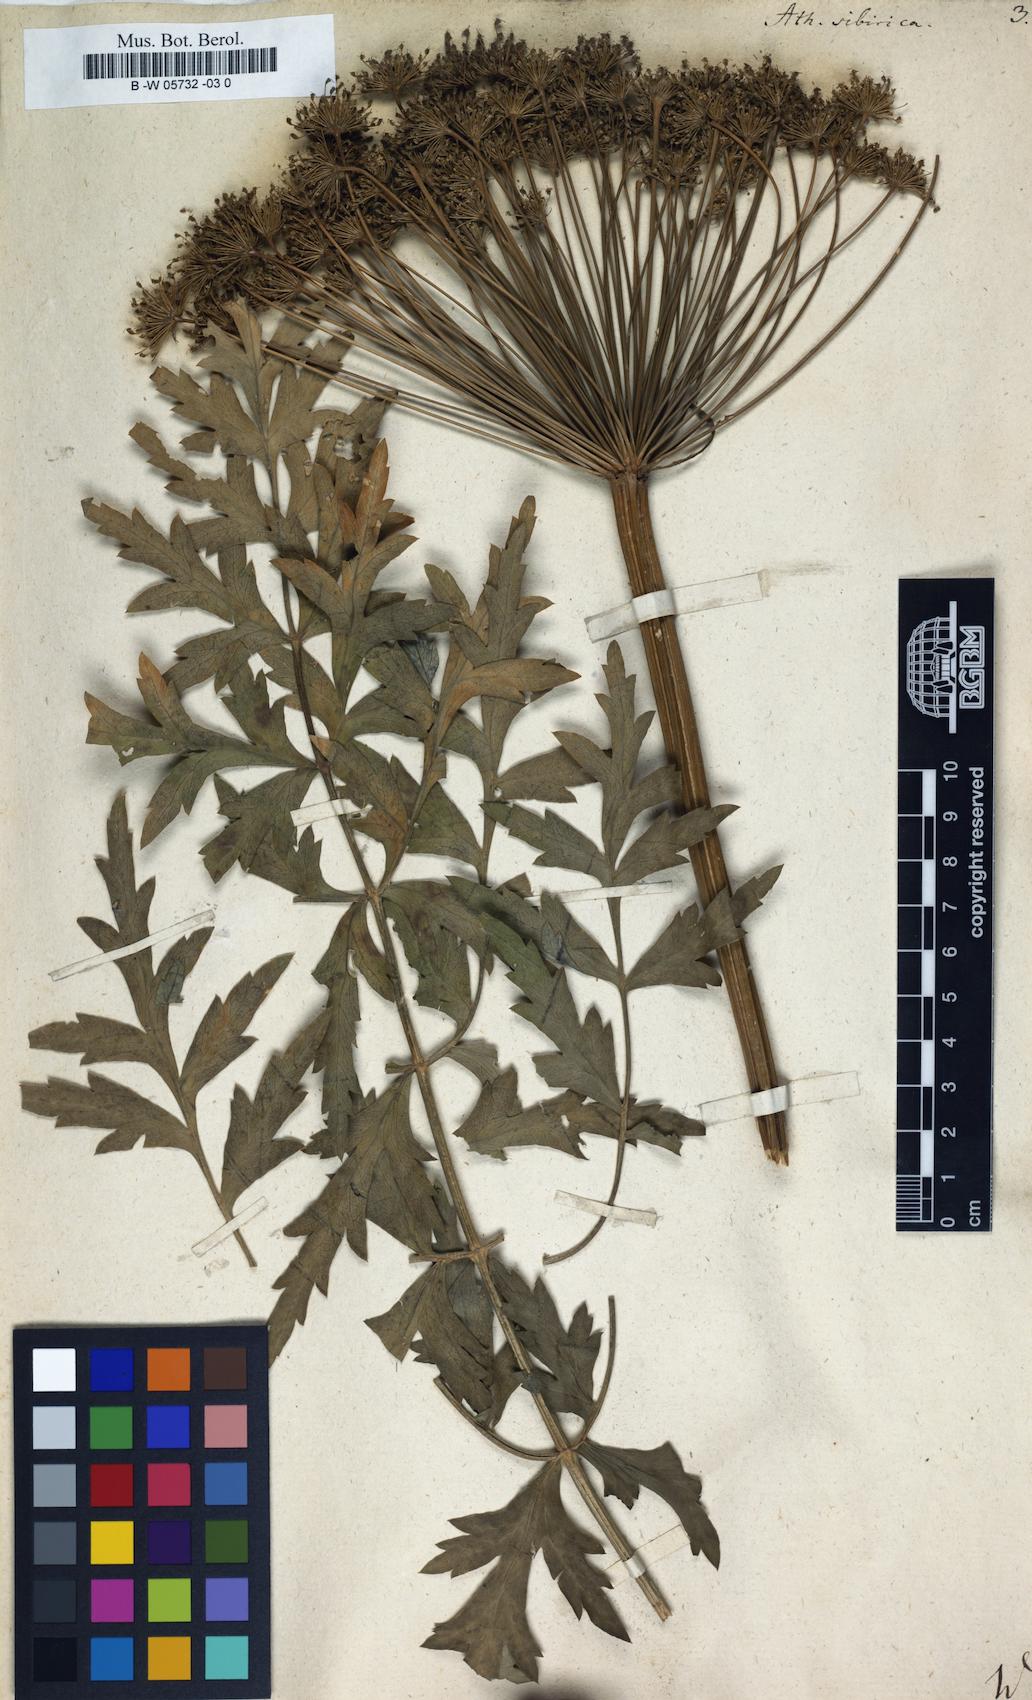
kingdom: Plantae
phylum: Tracheophyta
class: Magnoliopsida
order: Apiales
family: Apiaceae
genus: Seseli
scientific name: Seseli libanotis
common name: Mooncarrot
